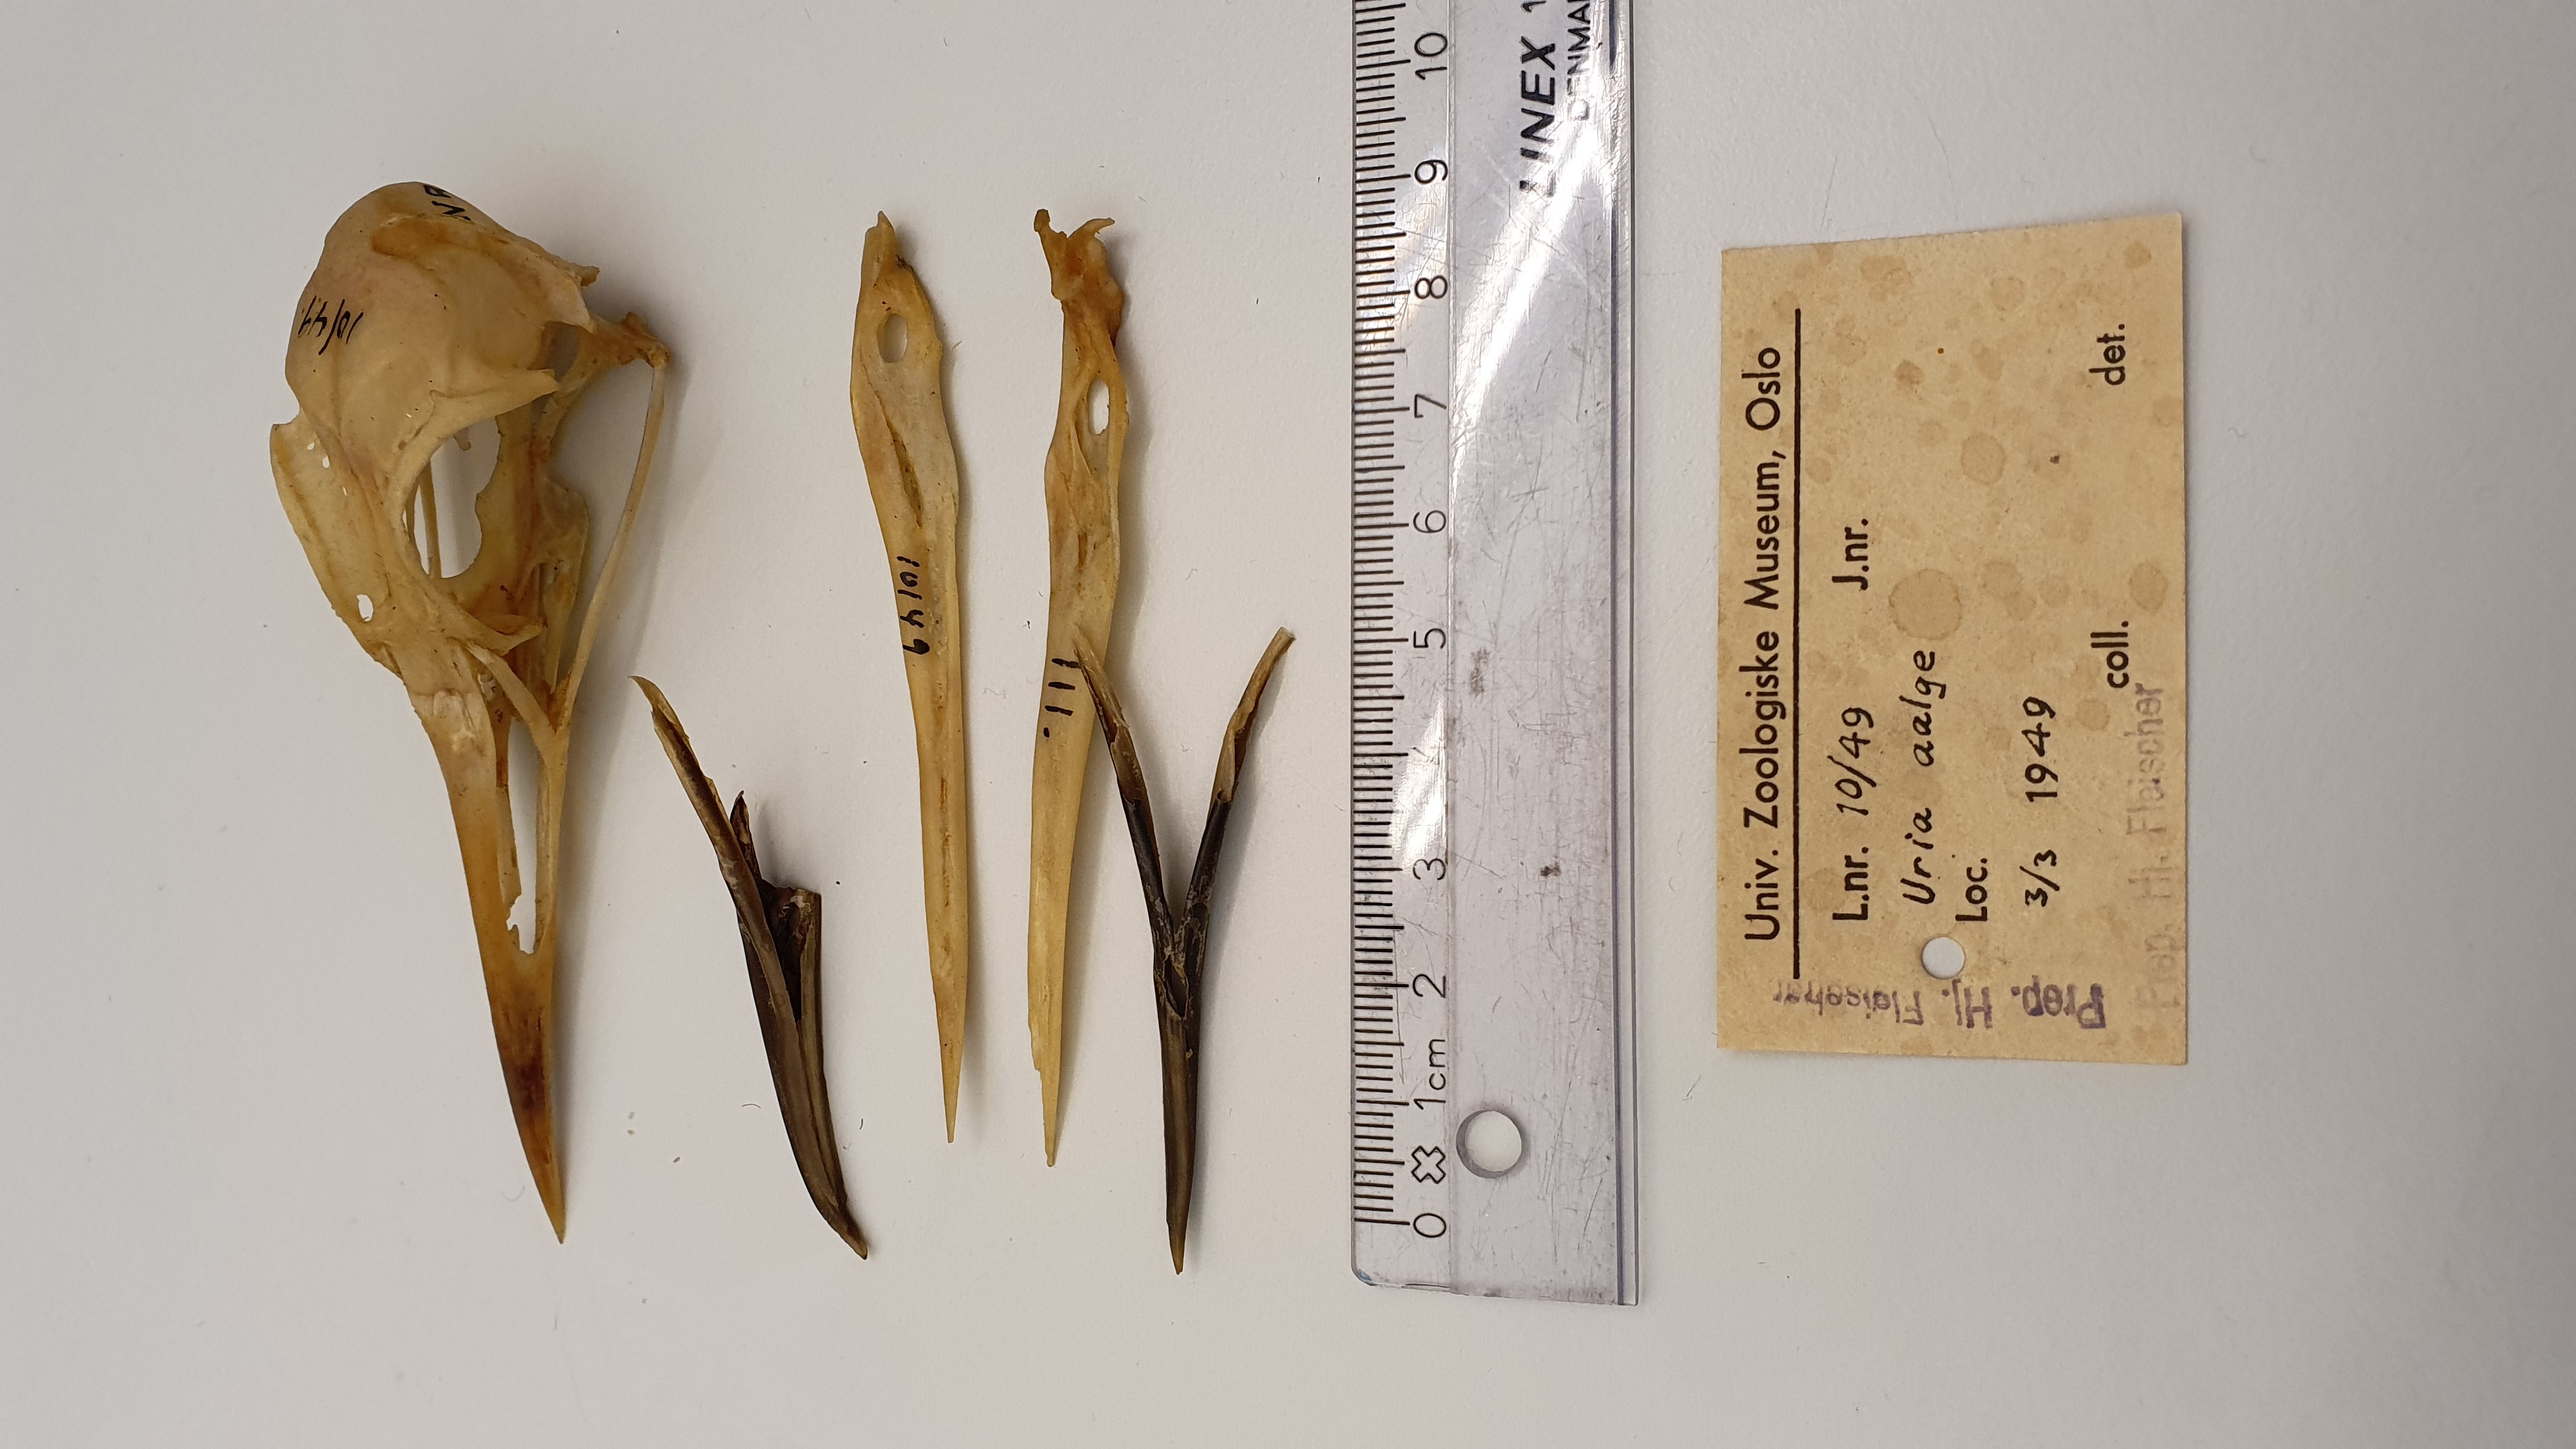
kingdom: Animalia
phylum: Chordata
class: Aves
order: Charadriiformes
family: Alcidae
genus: Uria
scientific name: Uria aalge
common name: Common murre
